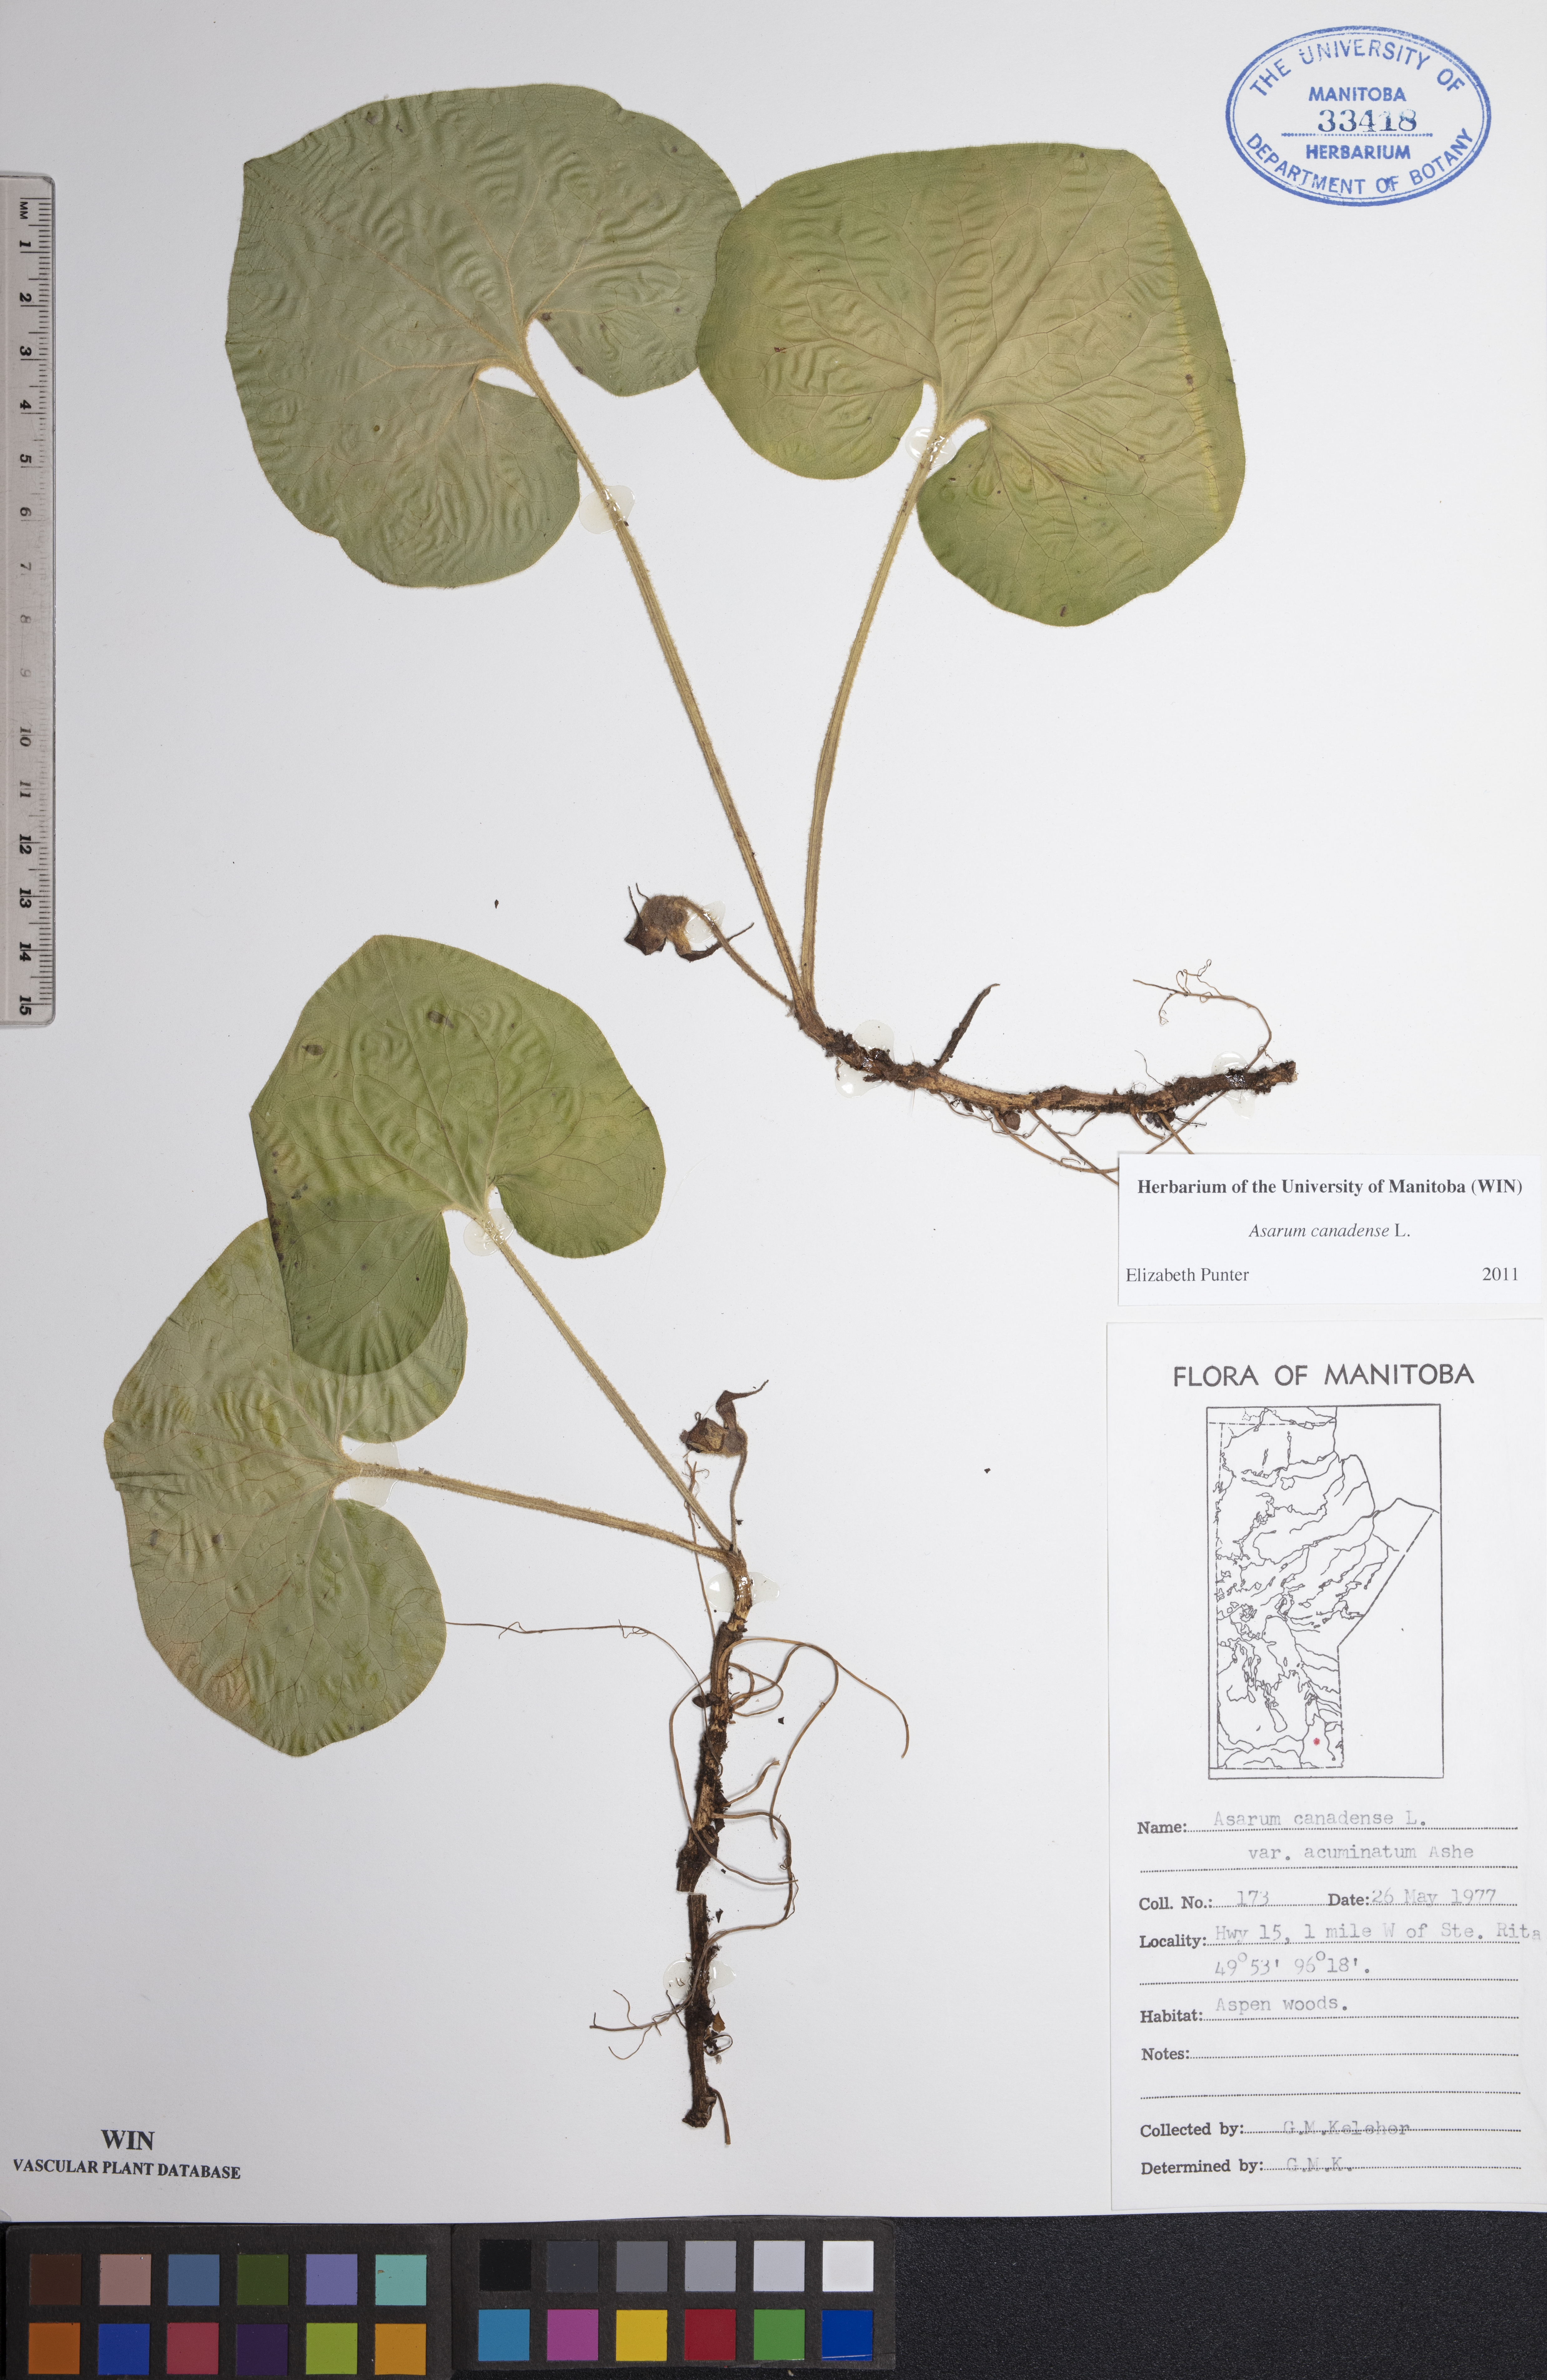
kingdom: Plantae
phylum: Tracheophyta
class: Magnoliopsida
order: Piperales
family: Aristolochiaceae
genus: Asarum
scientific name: Asarum canadense
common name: Wild ginger
